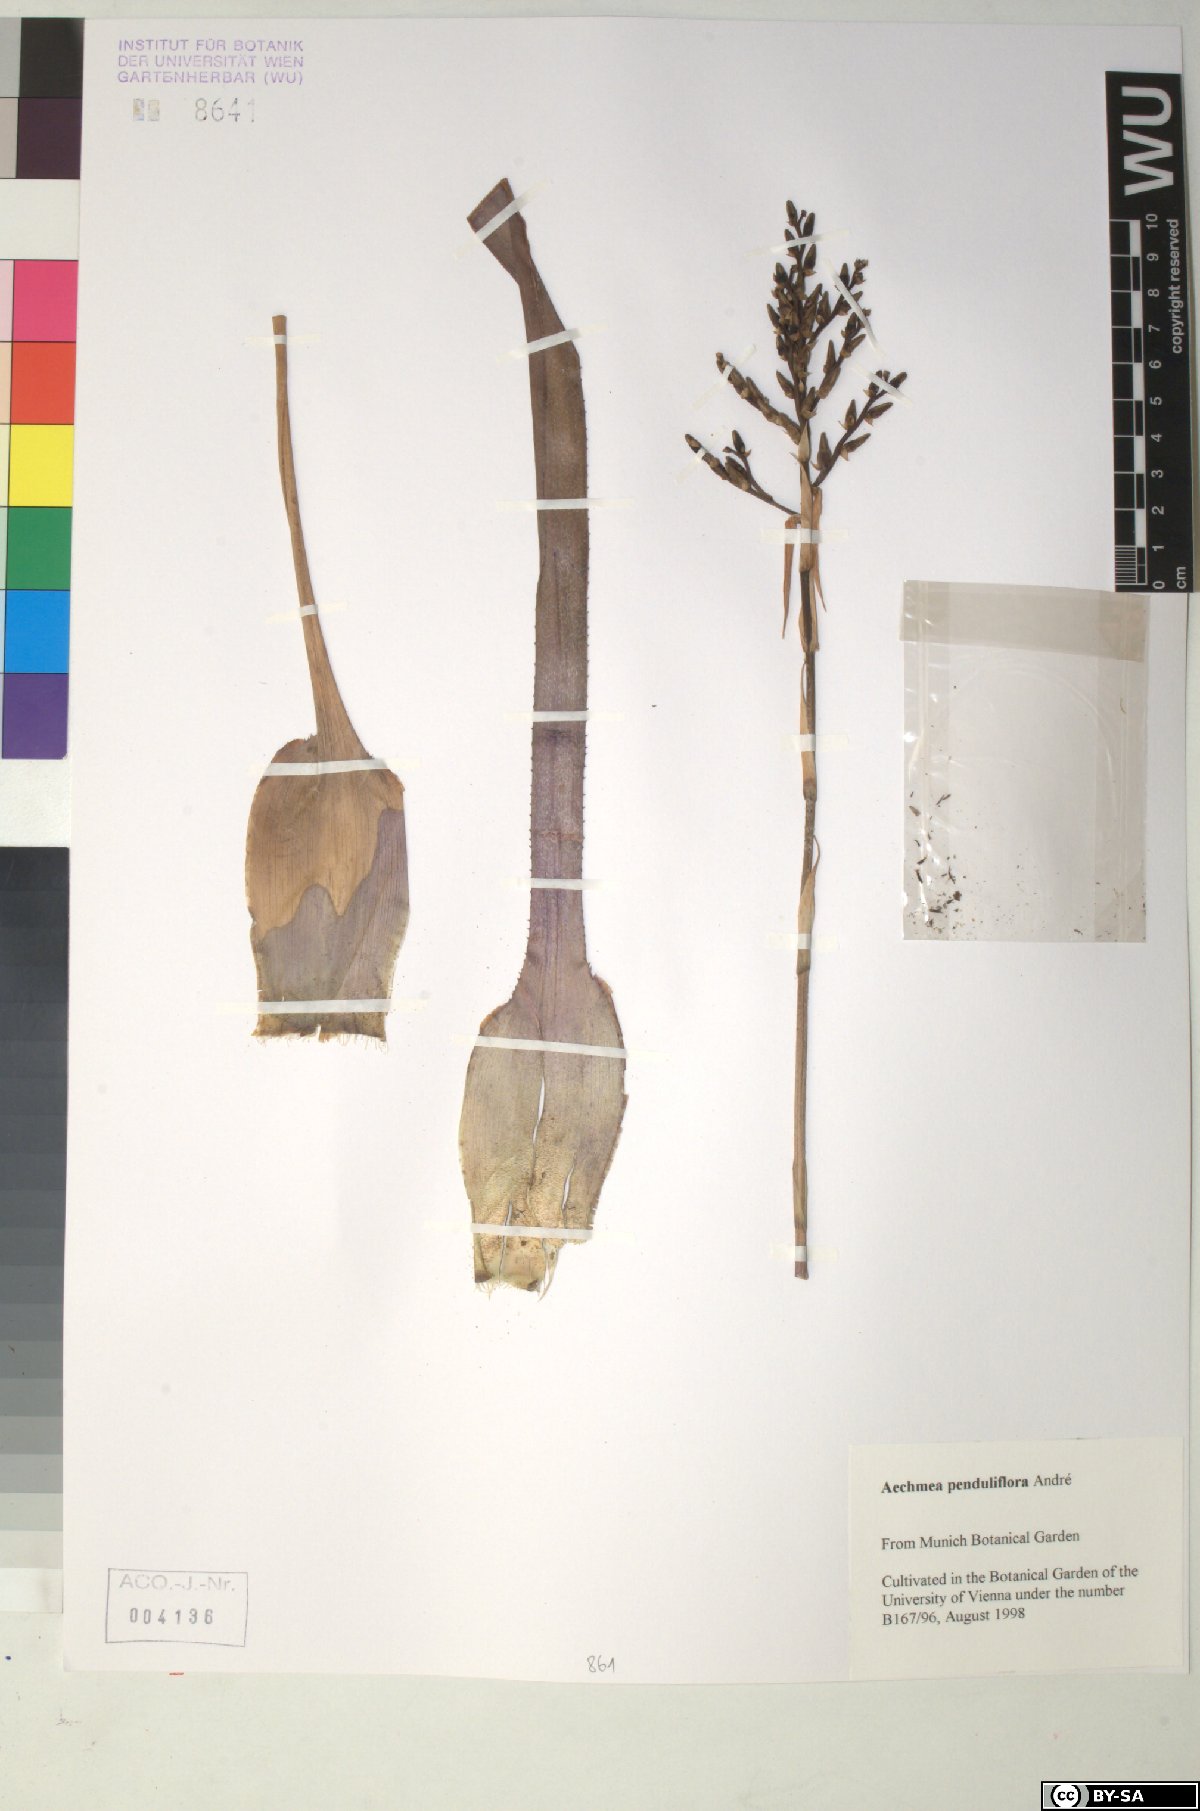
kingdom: Plantae
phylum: Tracheophyta
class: Liliopsida
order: Poales
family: Bromeliaceae
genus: Aechmea
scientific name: Aechmea penduliflora
